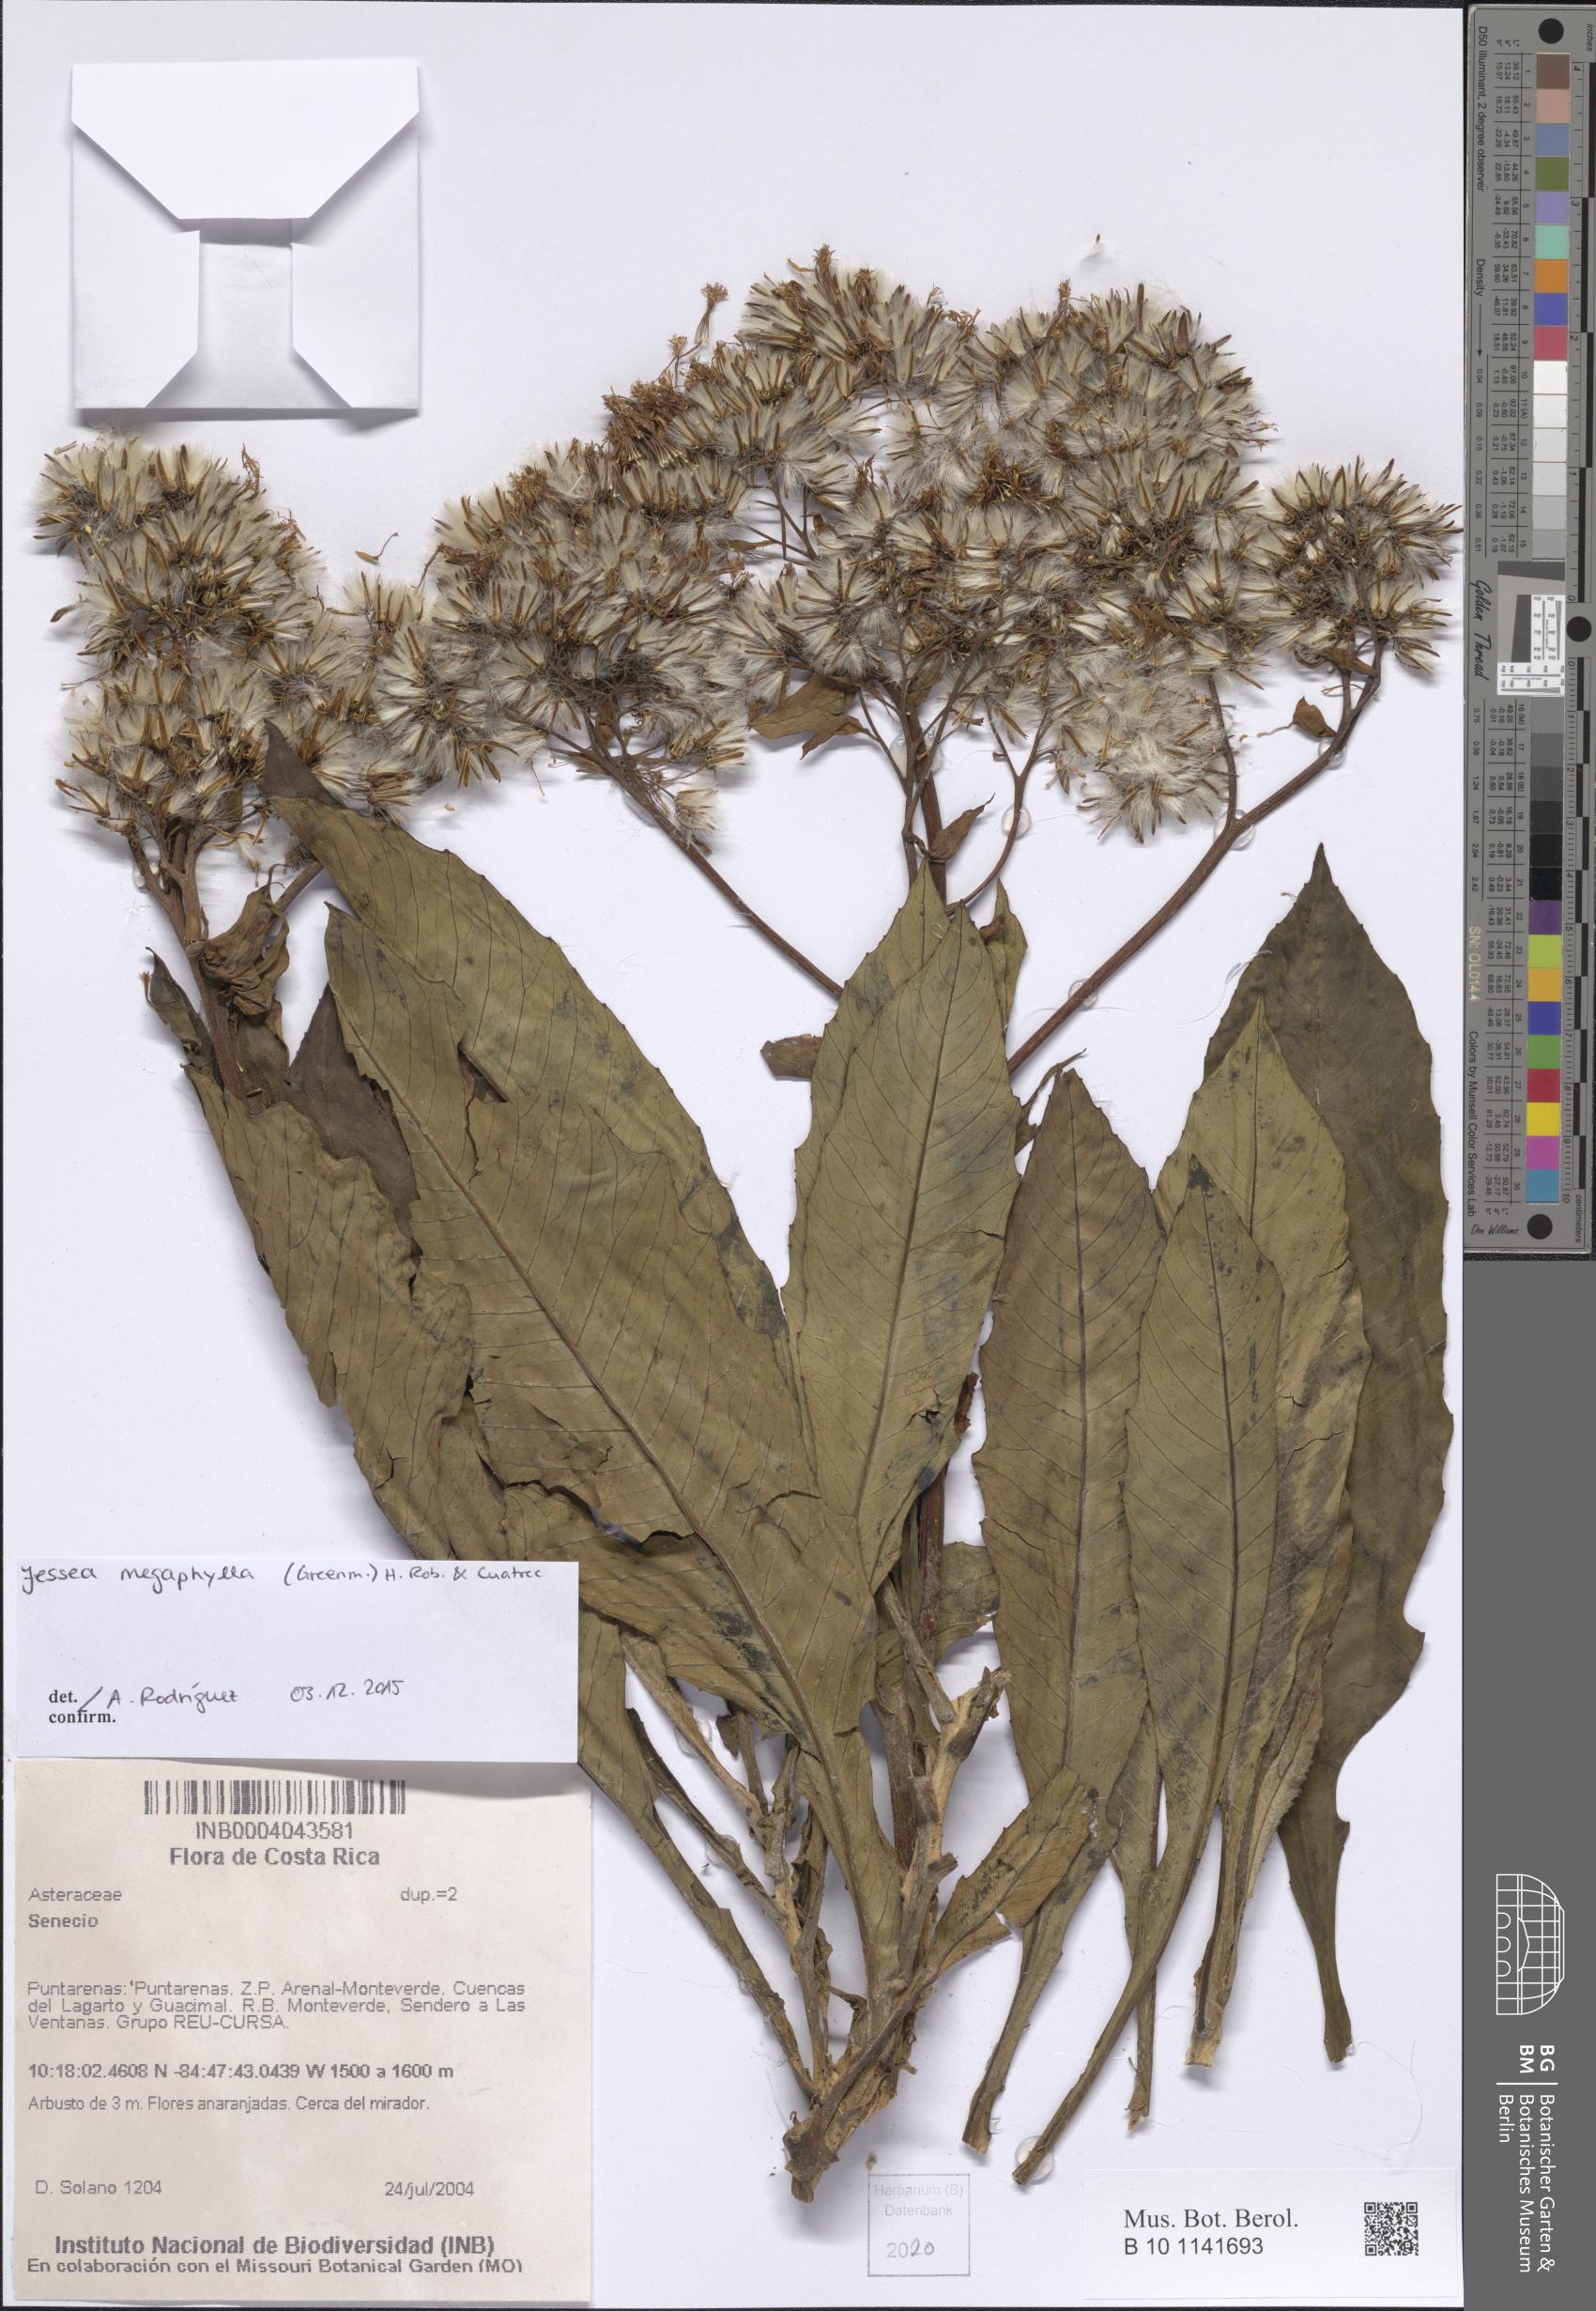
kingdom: Plantae
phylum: Tracheophyta
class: Magnoliopsida
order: Asterales
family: Asteraceae
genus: Jessea
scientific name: Jessea megaphylla
